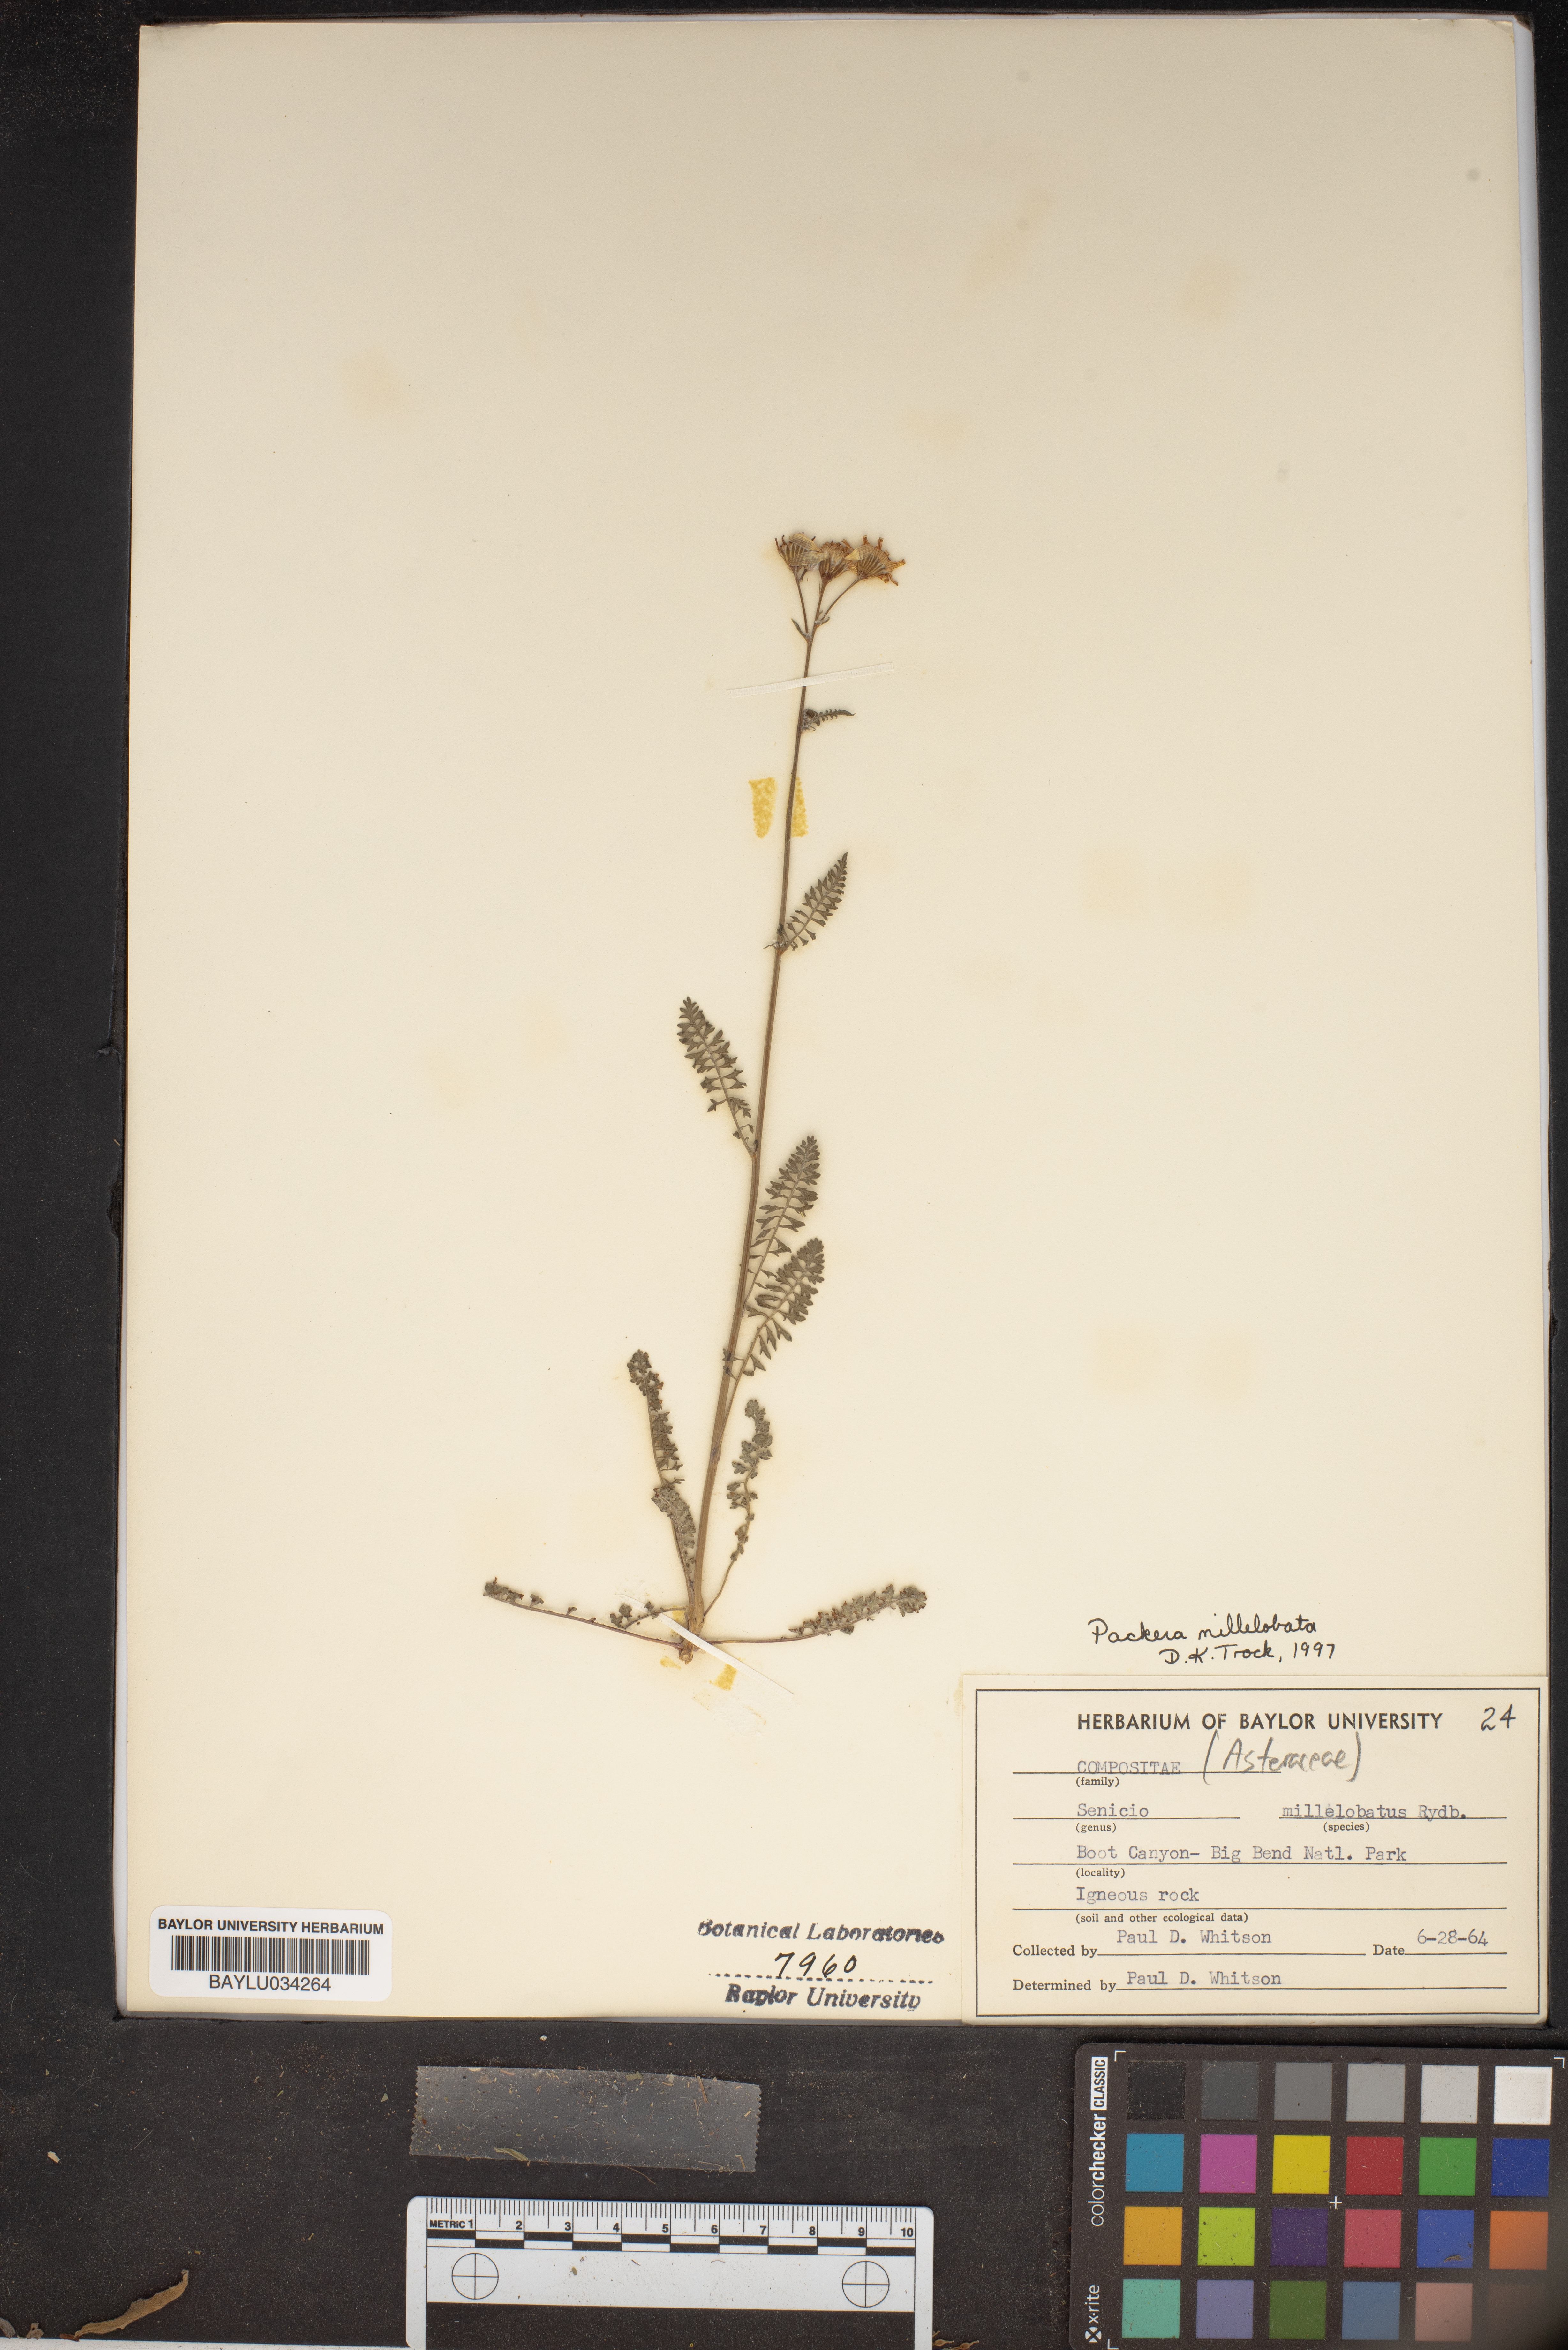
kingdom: Plantae
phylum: Tracheophyta
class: Magnoliopsida
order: Asterales
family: Asteraceae
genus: Packera
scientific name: Packera millelobata
